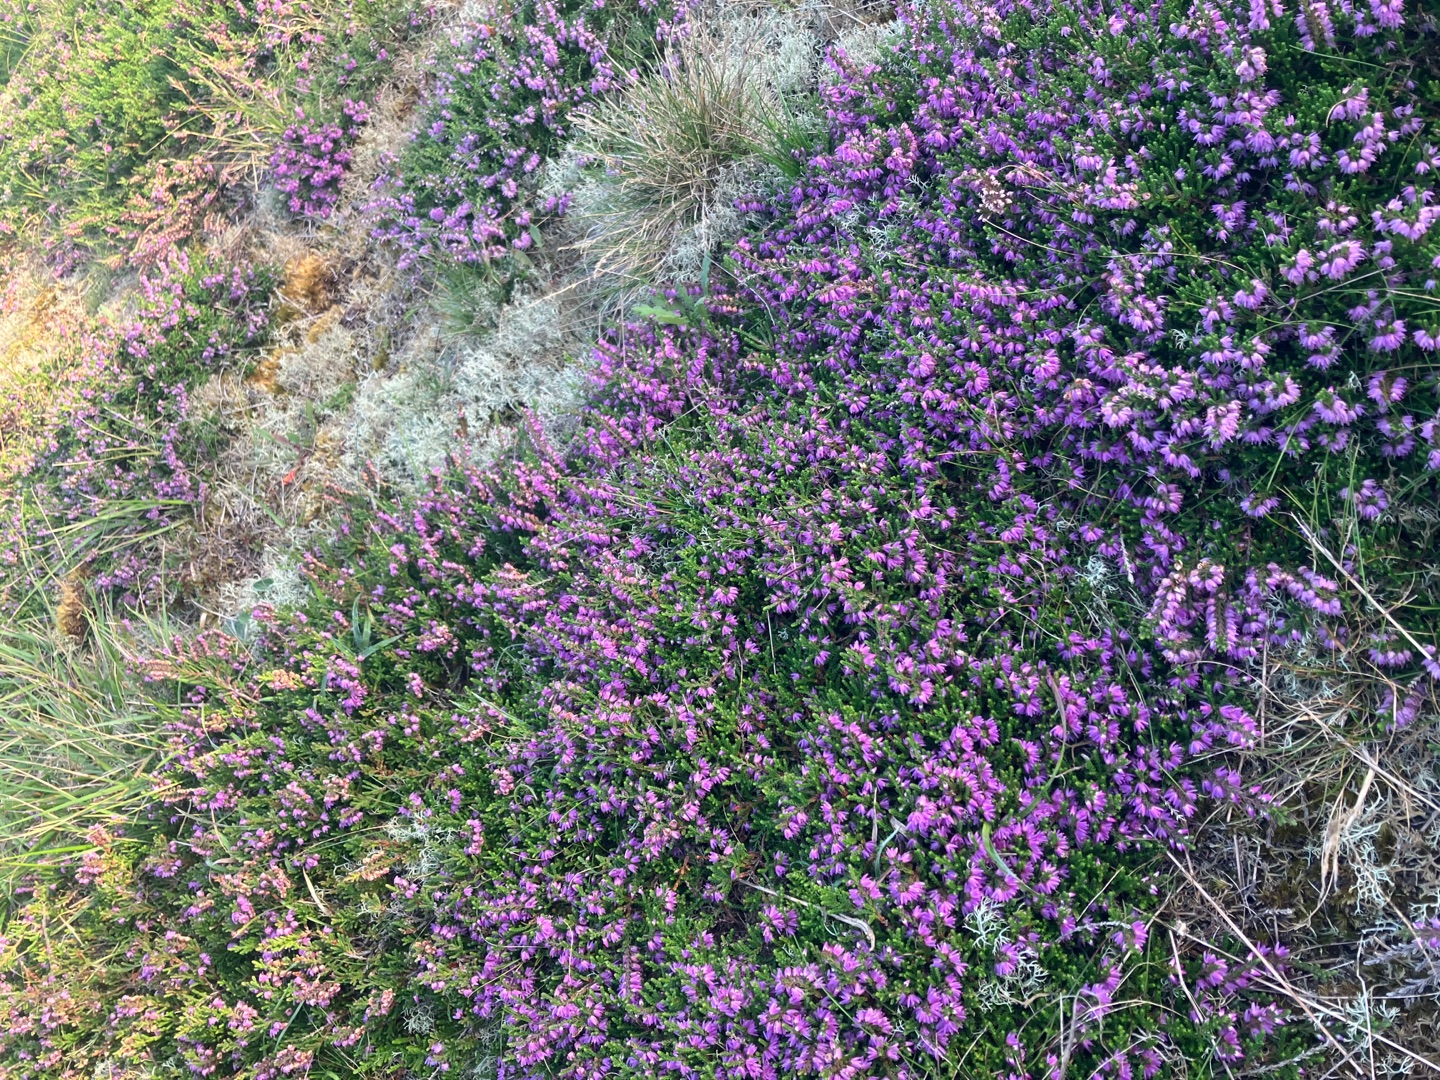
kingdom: Plantae
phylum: Tracheophyta
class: Magnoliopsida
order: Ericales
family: Ericaceae
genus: Calluna
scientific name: Calluna vulgaris
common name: Hedelyng
